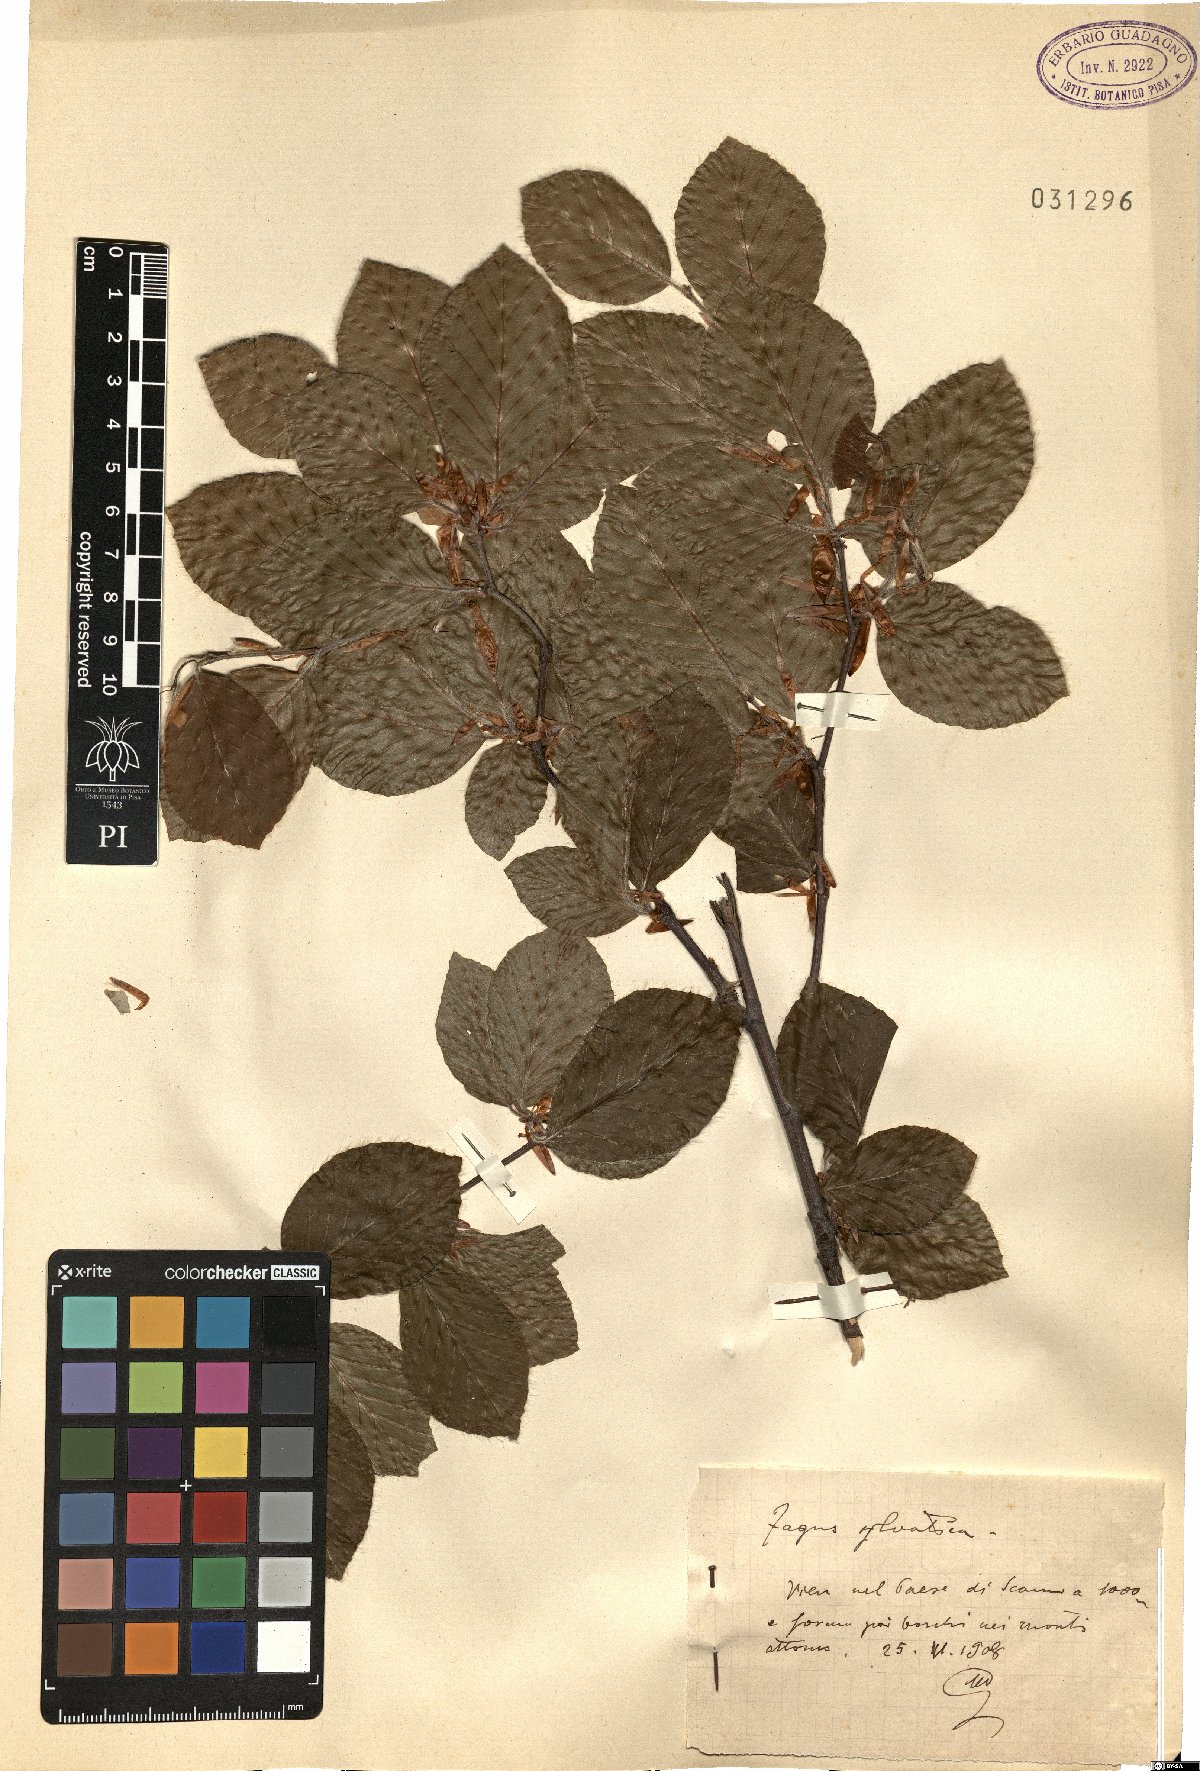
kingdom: Plantae
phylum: Tracheophyta
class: Magnoliopsida
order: Fagales
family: Fagaceae
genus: Fagus
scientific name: Fagus sylvatica
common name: Beech
